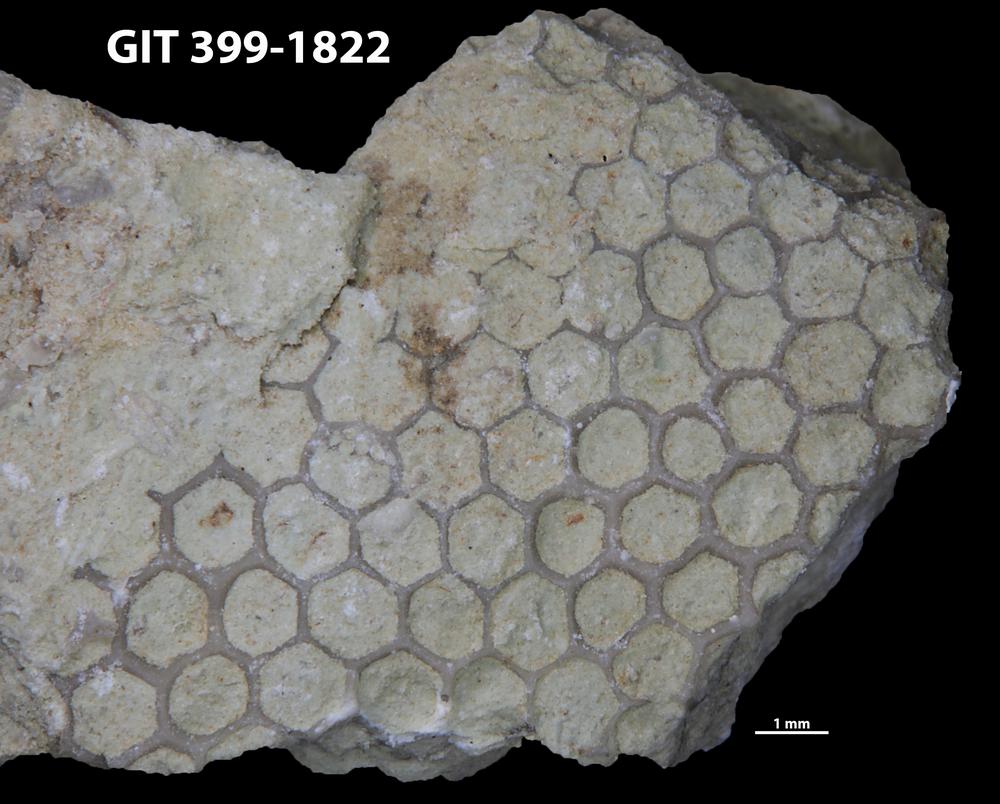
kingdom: Plantae
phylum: Chlorophyta
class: Ulvophyceae
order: Cyclocrinales
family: Cyclocrinaceae
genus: Mastopora
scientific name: Mastopora concava
